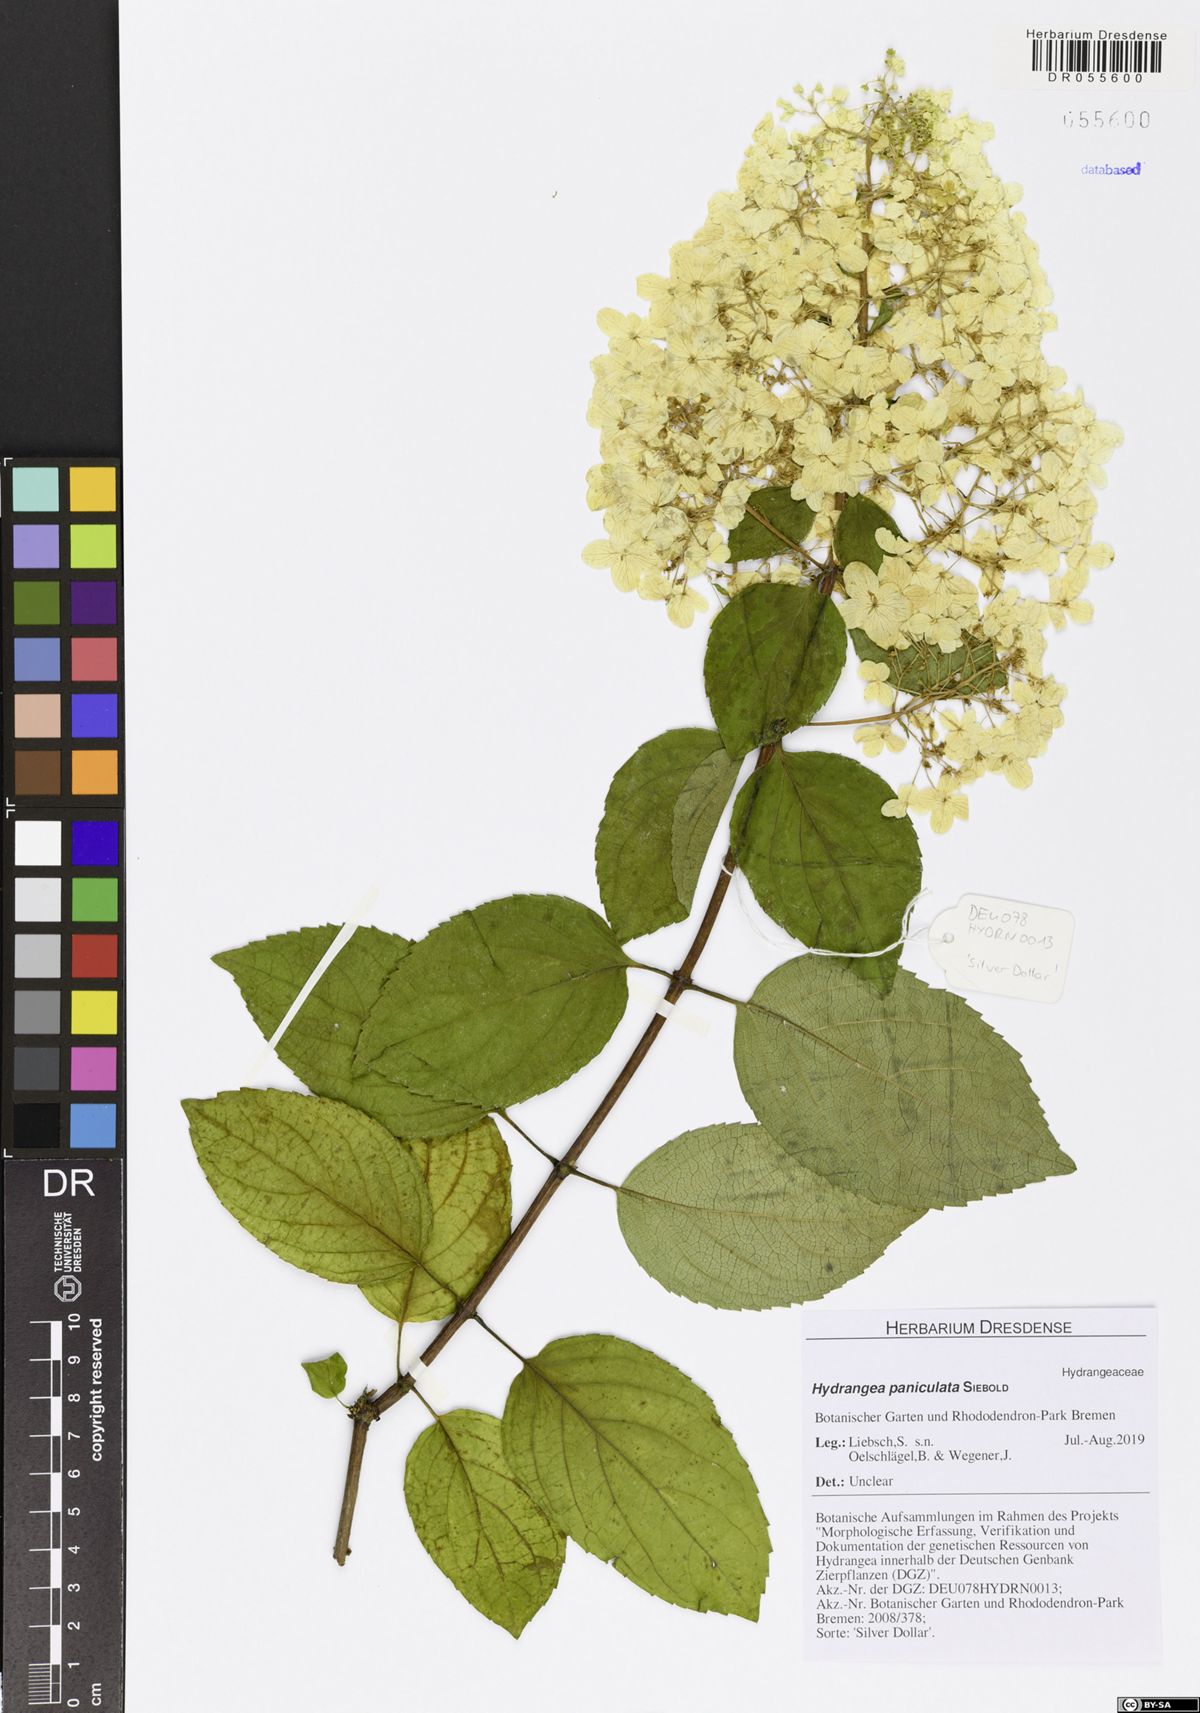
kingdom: Plantae
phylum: Tracheophyta
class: Magnoliopsida
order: Cornales
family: Hydrangeaceae
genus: Hydrangea
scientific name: Hydrangea paniculata
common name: Panicled hydrangea
